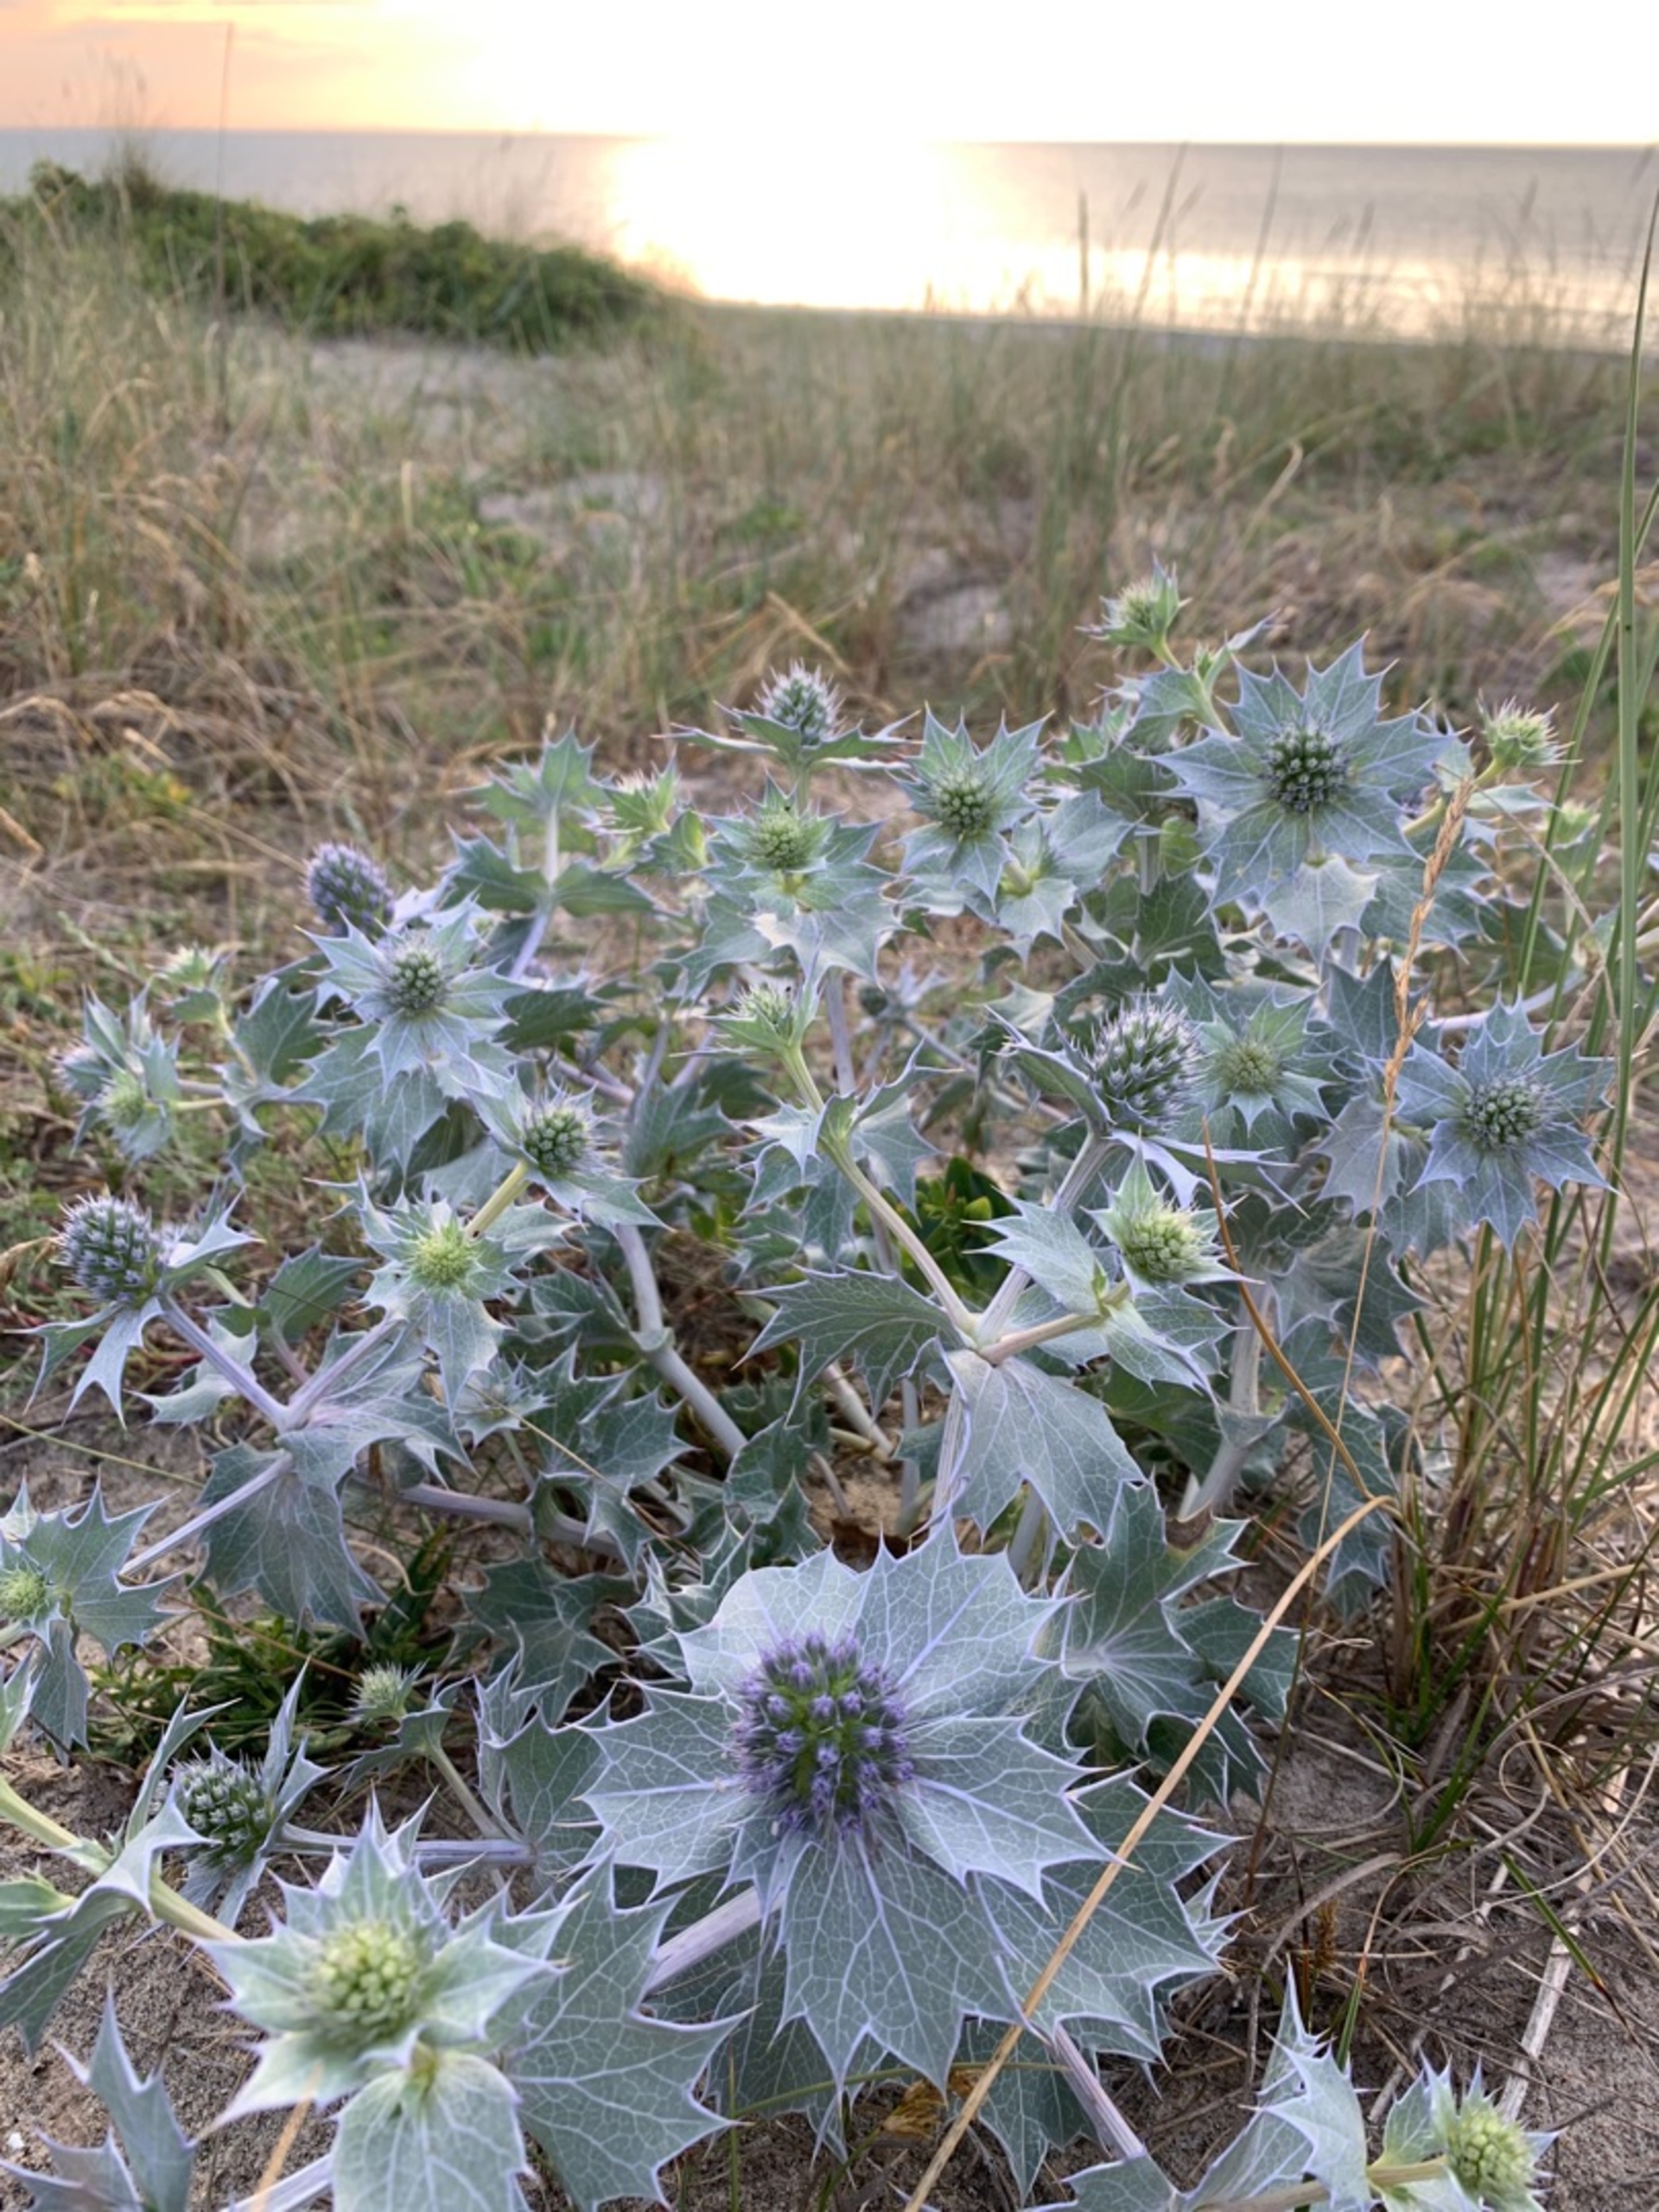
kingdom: Plantae
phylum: Tracheophyta
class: Magnoliopsida
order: Apiales
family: Apiaceae
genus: Eryngium
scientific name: Eryngium maritimum
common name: Strand-mandstro
